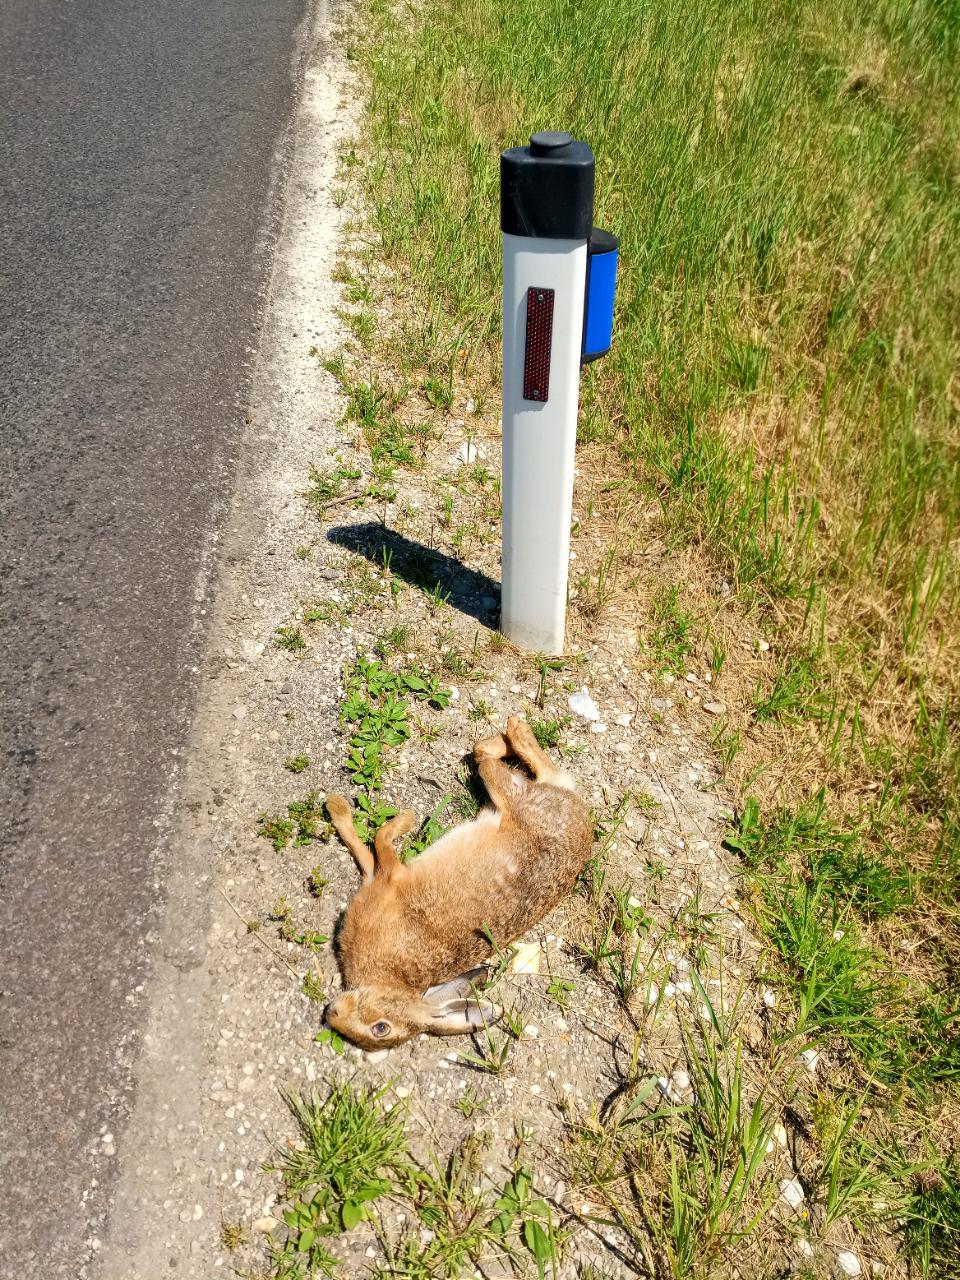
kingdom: Animalia
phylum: Chordata
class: Mammalia
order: Lagomorpha
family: Leporidae
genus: Lepus
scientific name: Lepus europaeus
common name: European hare
